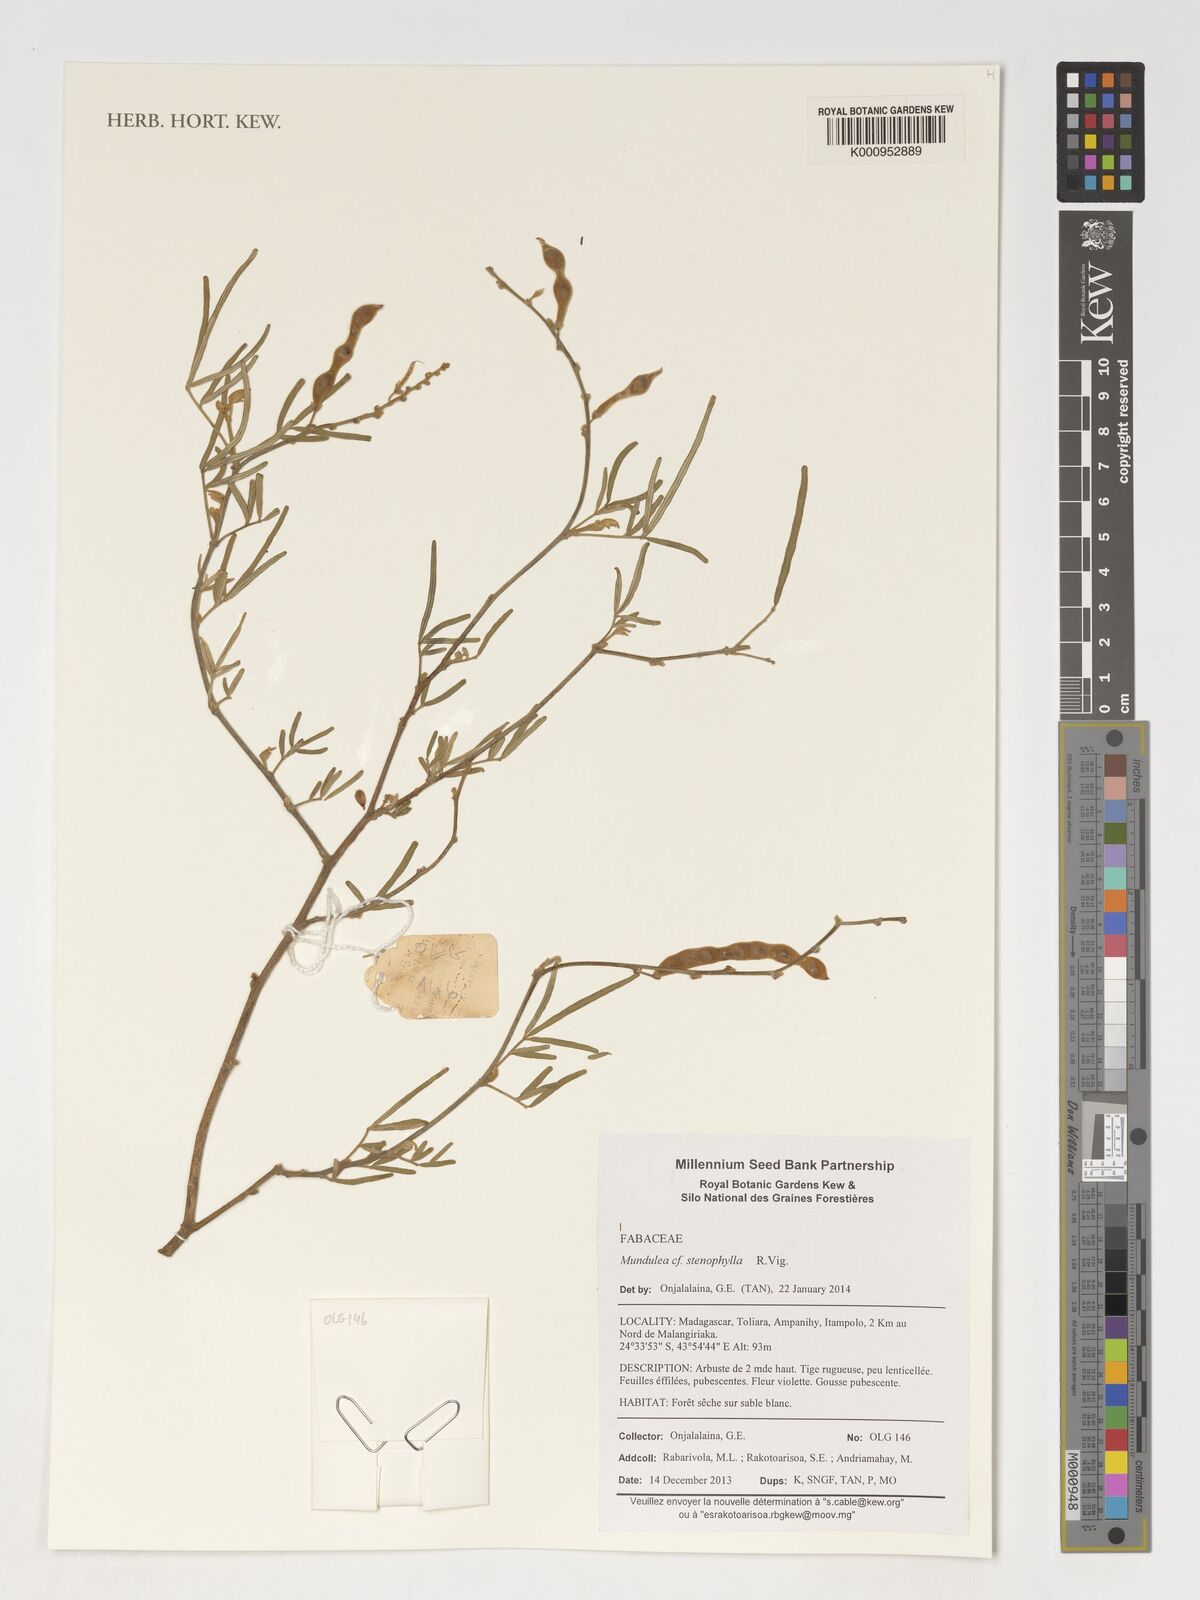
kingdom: Plantae
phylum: Tracheophyta
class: Magnoliopsida
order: Fabales
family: Fabaceae
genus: Mundulea
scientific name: Mundulea stenophylla
